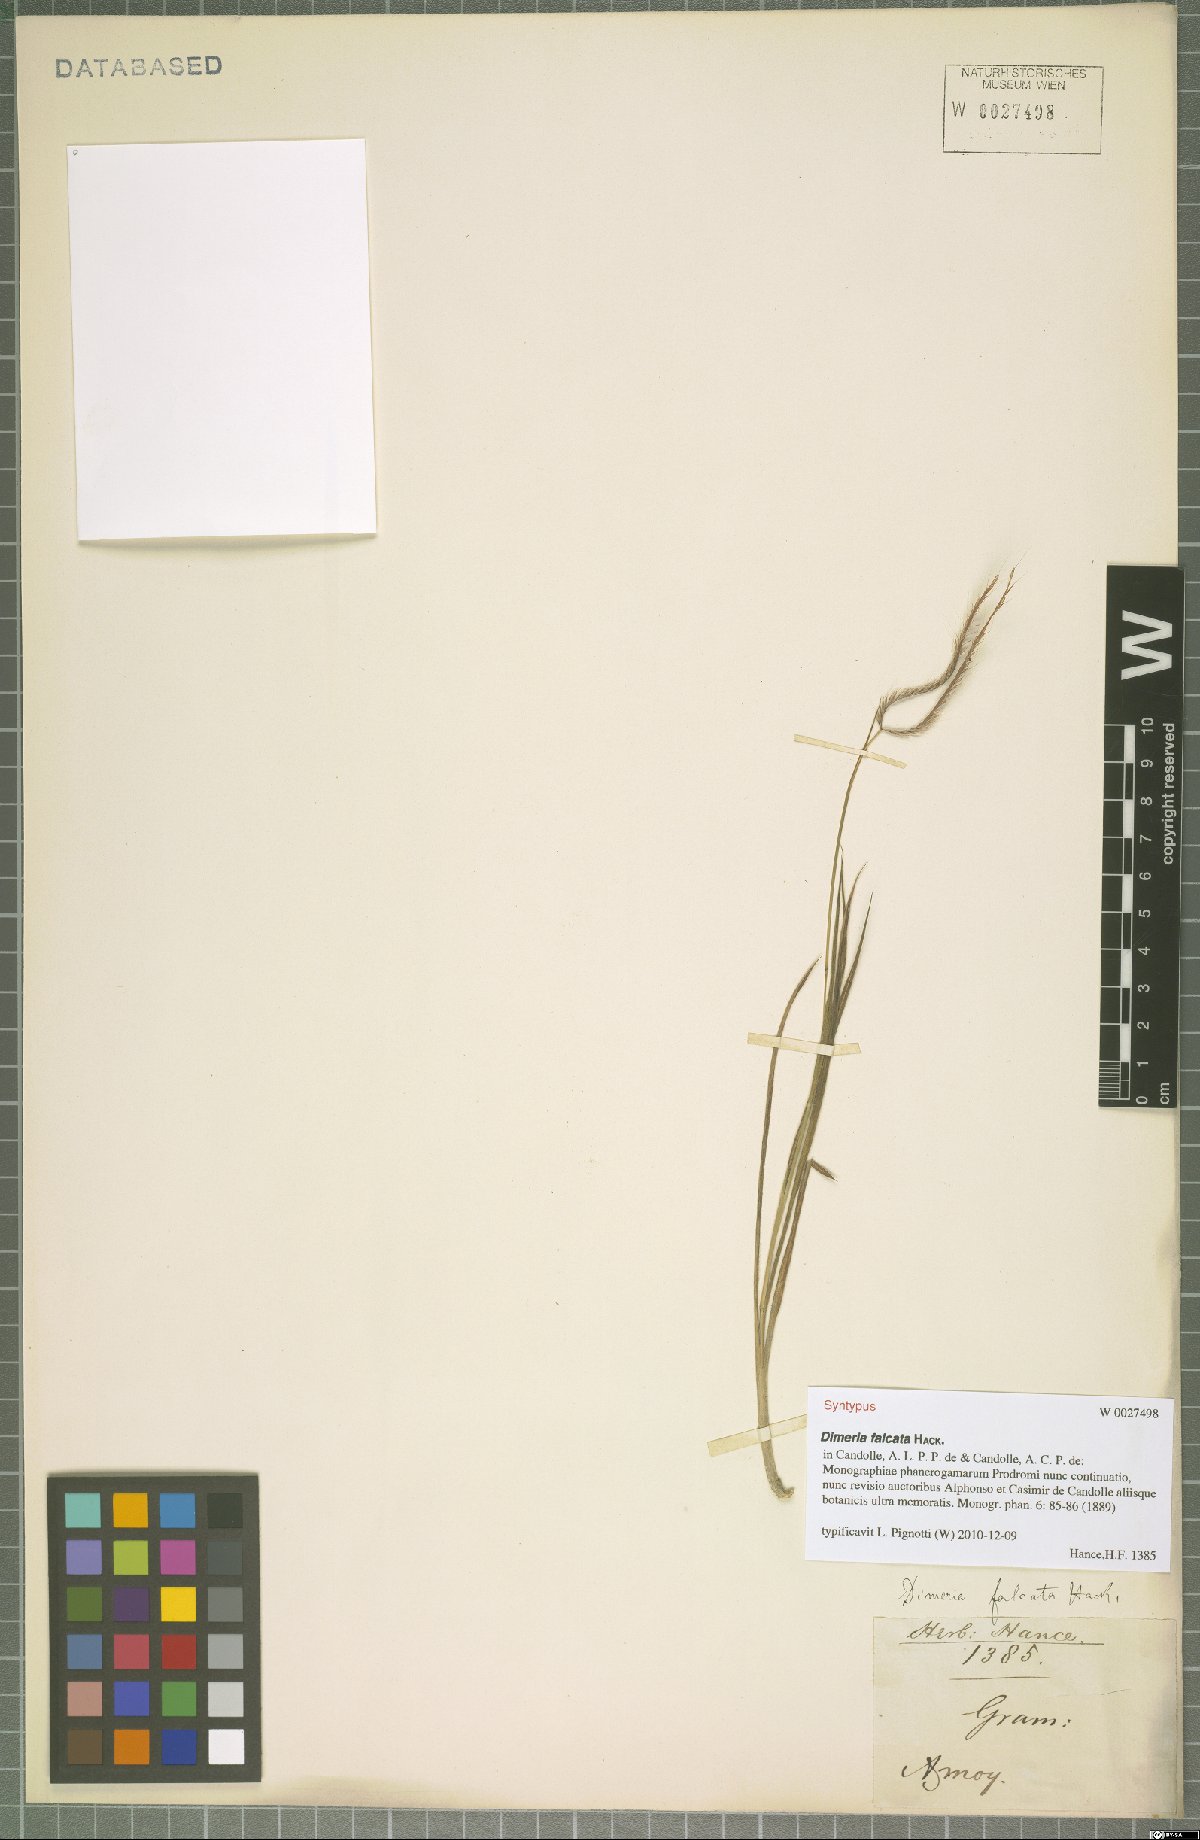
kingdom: Plantae
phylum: Tracheophyta
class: Liliopsida
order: Poales
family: Poaceae
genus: Dimeria
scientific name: Dimeria falcata
